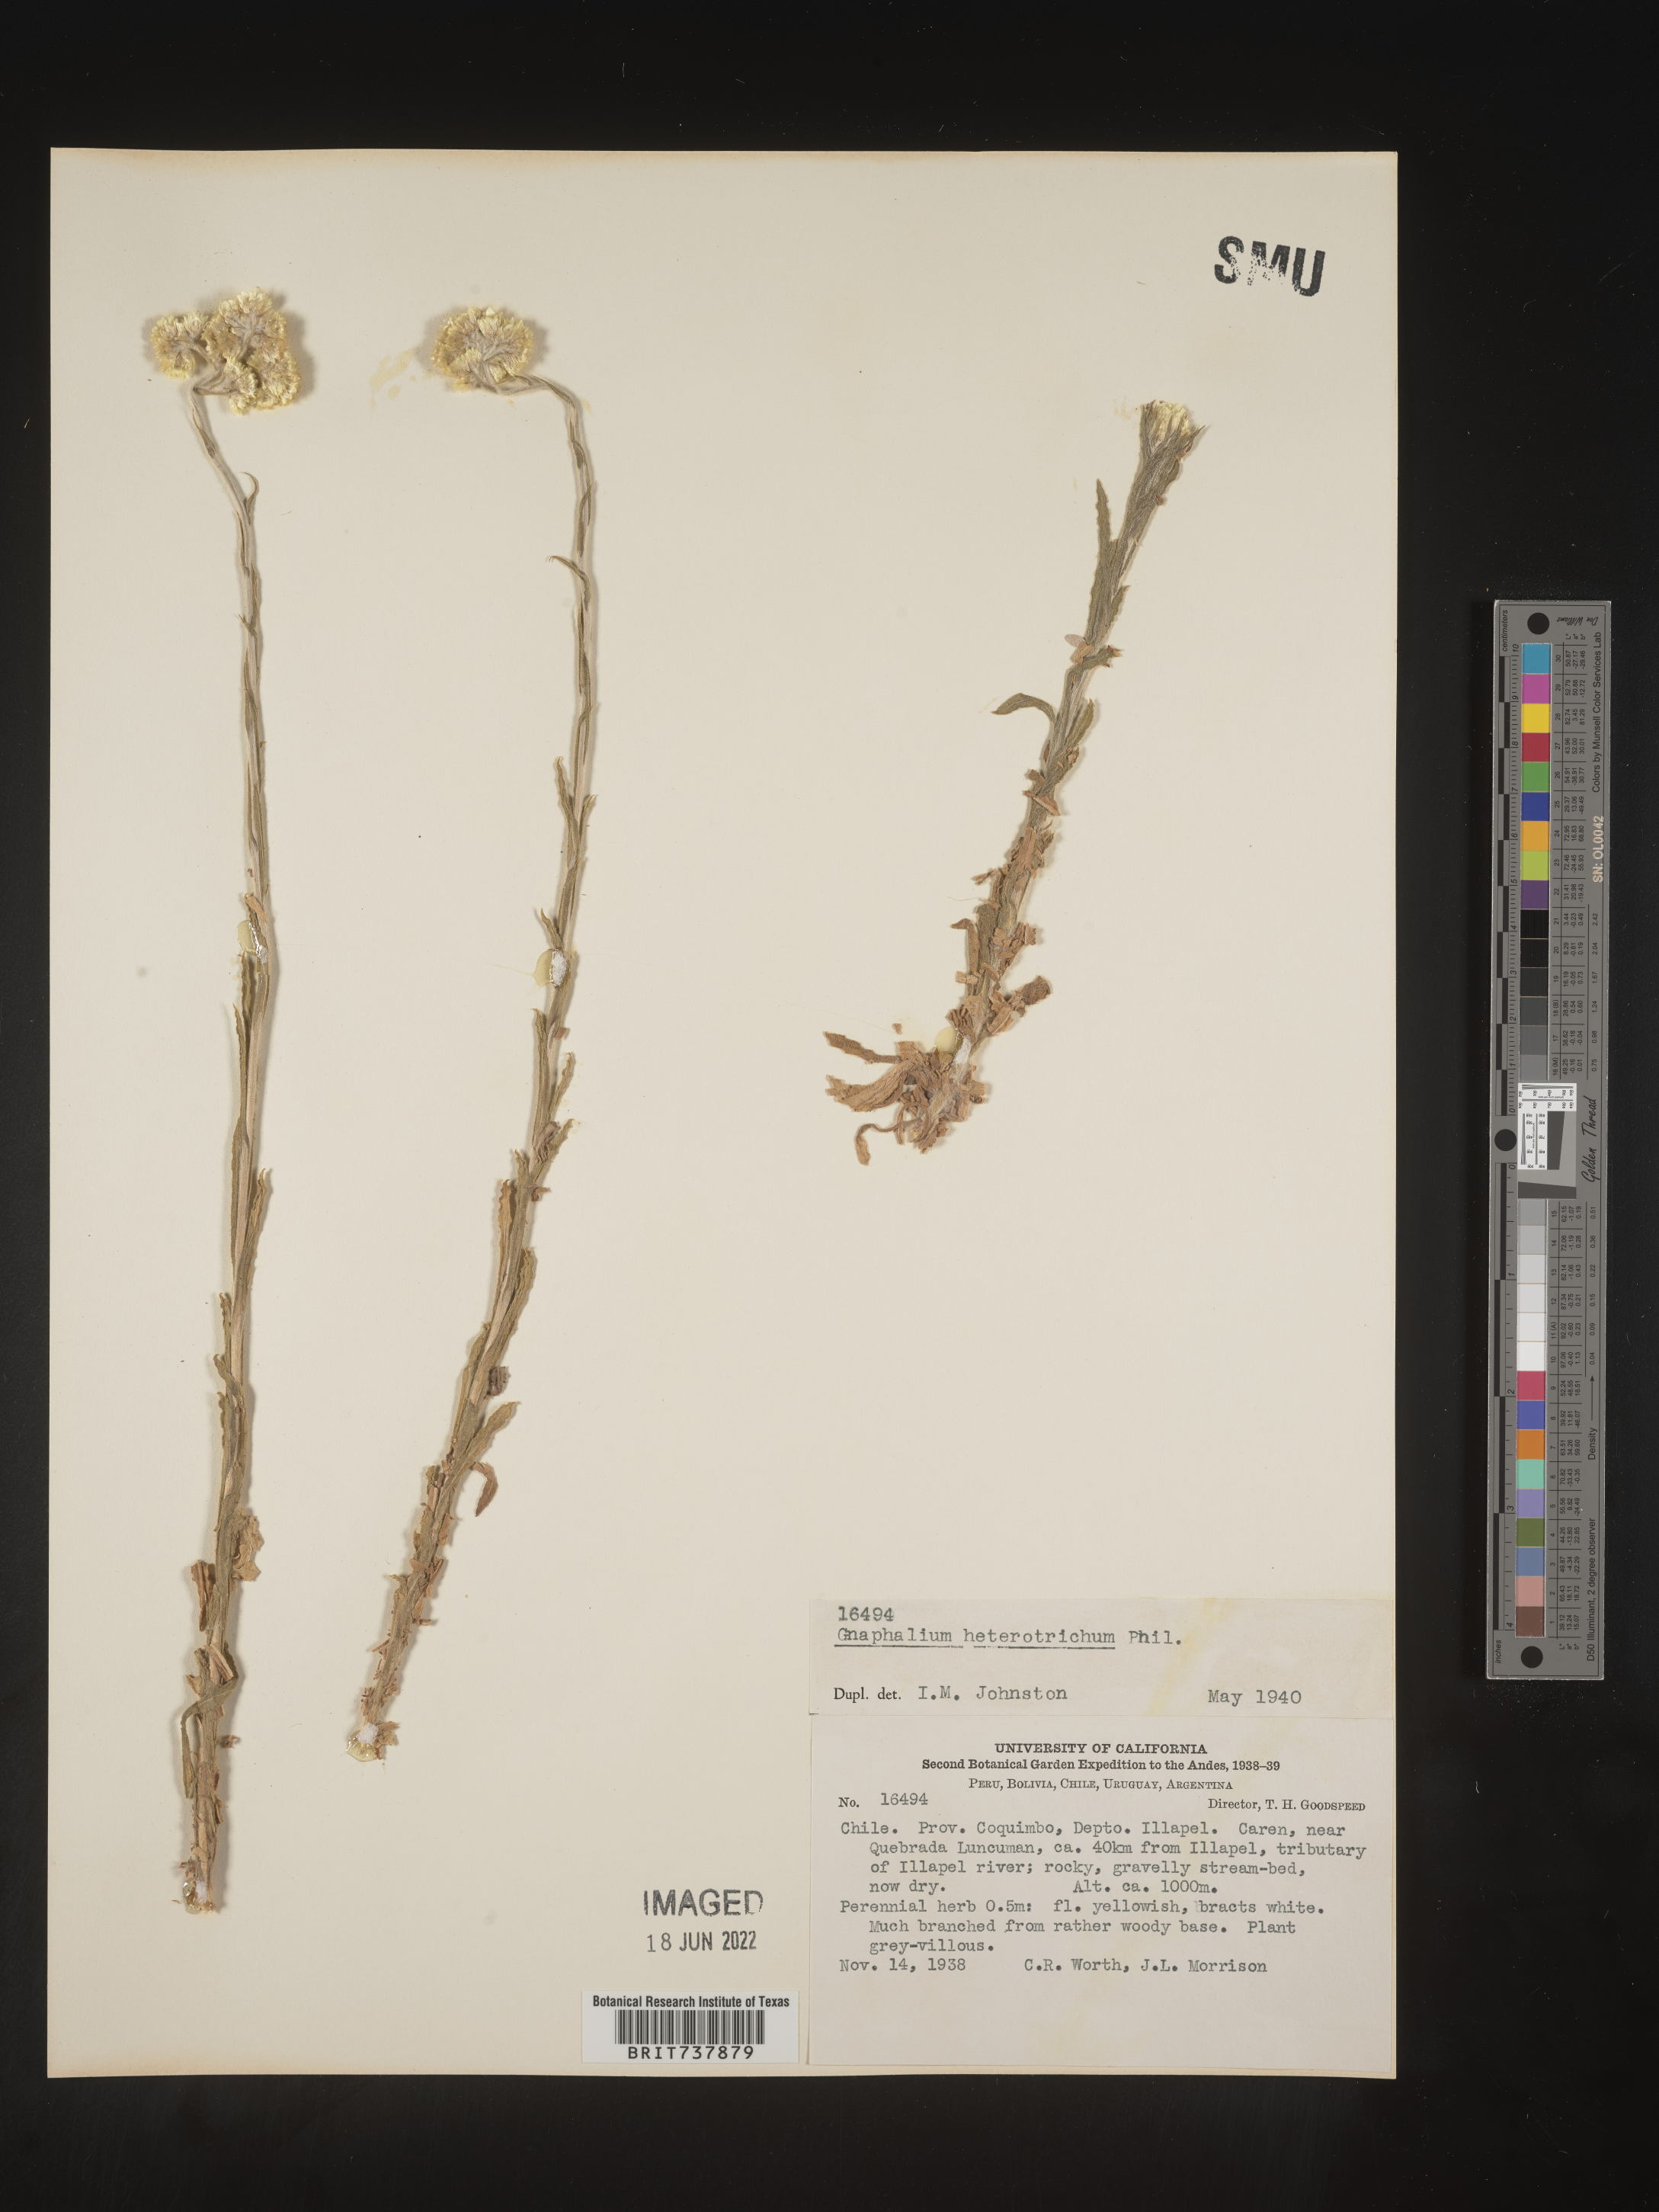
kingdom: Plantae
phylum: Tracheophyta
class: Magnoliopsida
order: Asterales
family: Asteraceae
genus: Pseudognaphalium
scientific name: Pseudognaphalium
